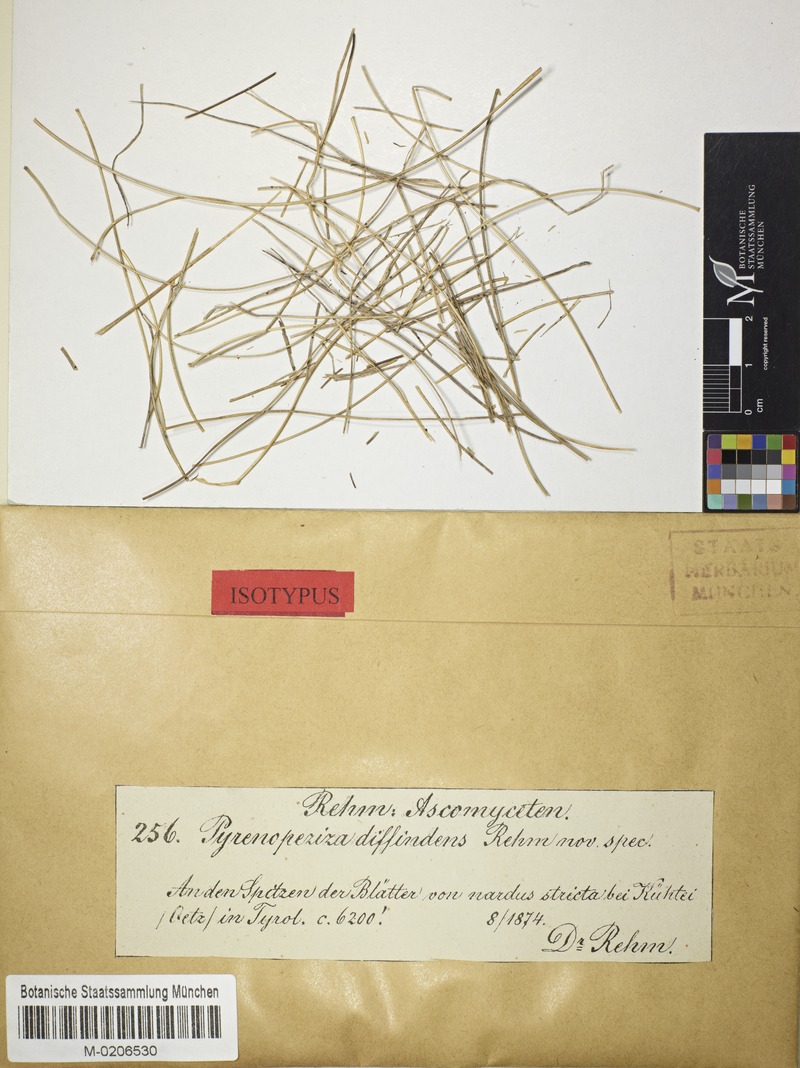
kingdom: Fungi
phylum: Ascomycota
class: Lecanoromycetes
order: Ostropales
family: Odontotremataceae
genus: Sphaeropezia
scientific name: Sphaeropezia diffindens
